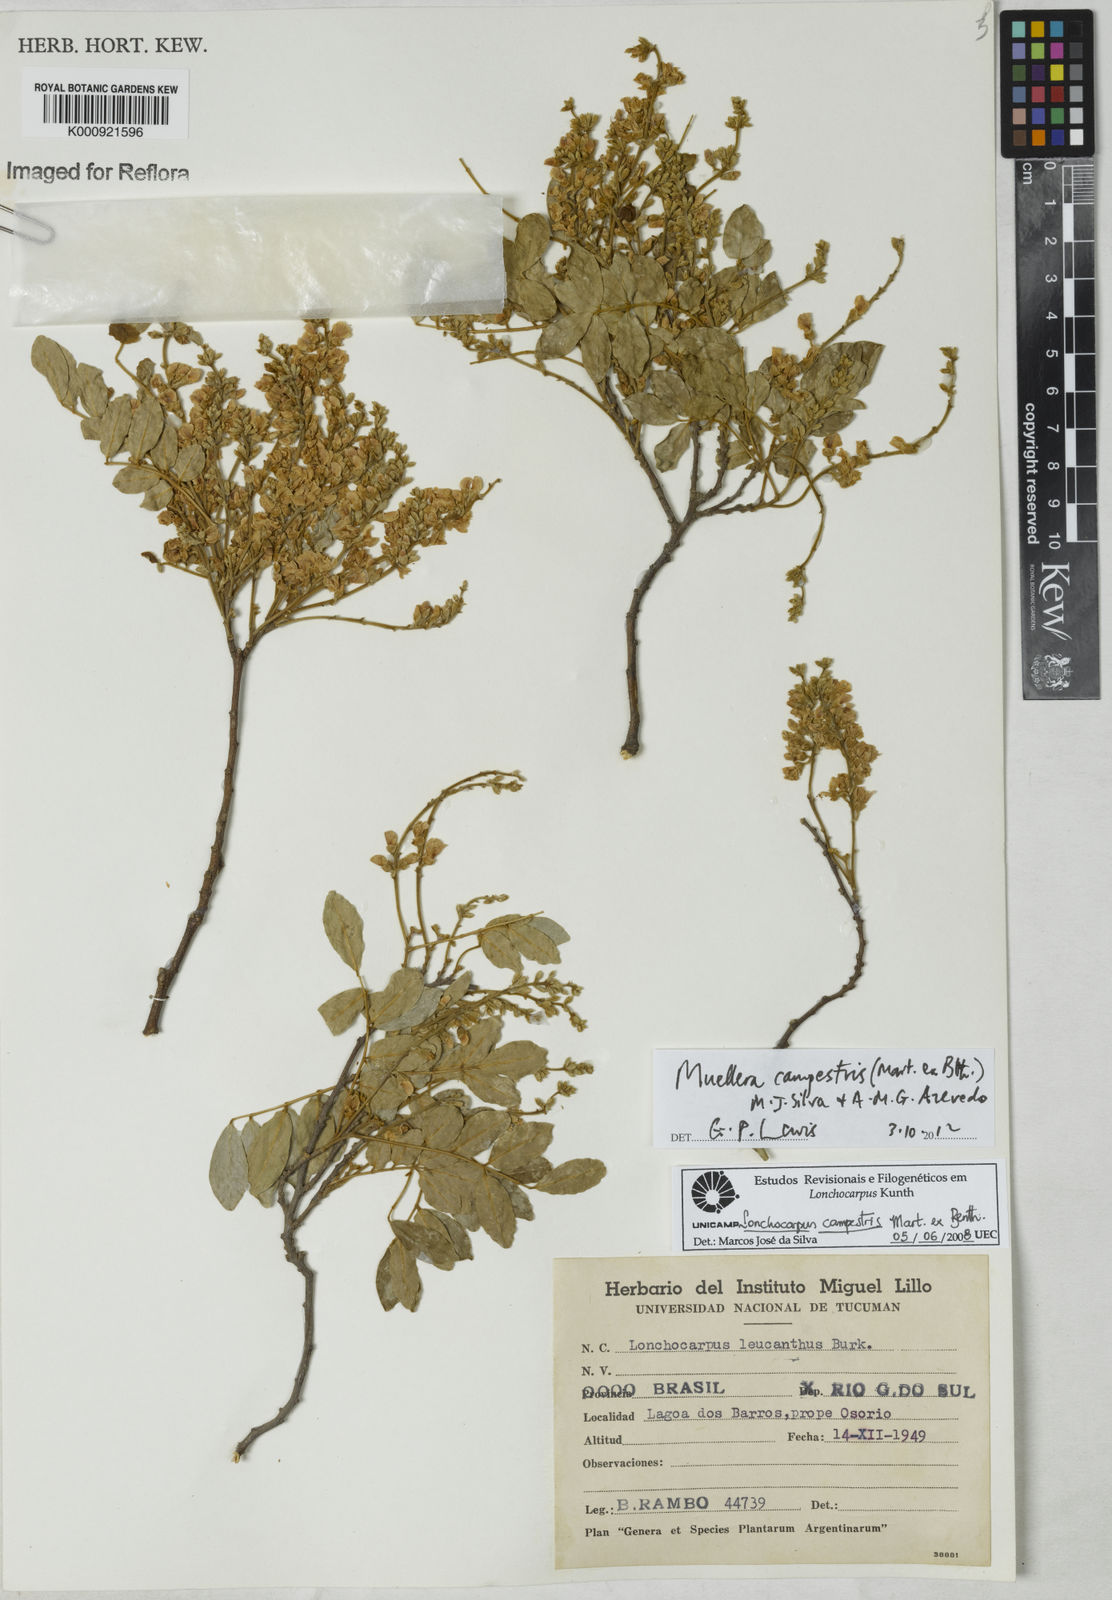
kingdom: Plantae
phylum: Tracheophyta
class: Magnoliopsida
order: Fabales
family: Fabaceae
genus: Muellera
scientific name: Muellera campestris
